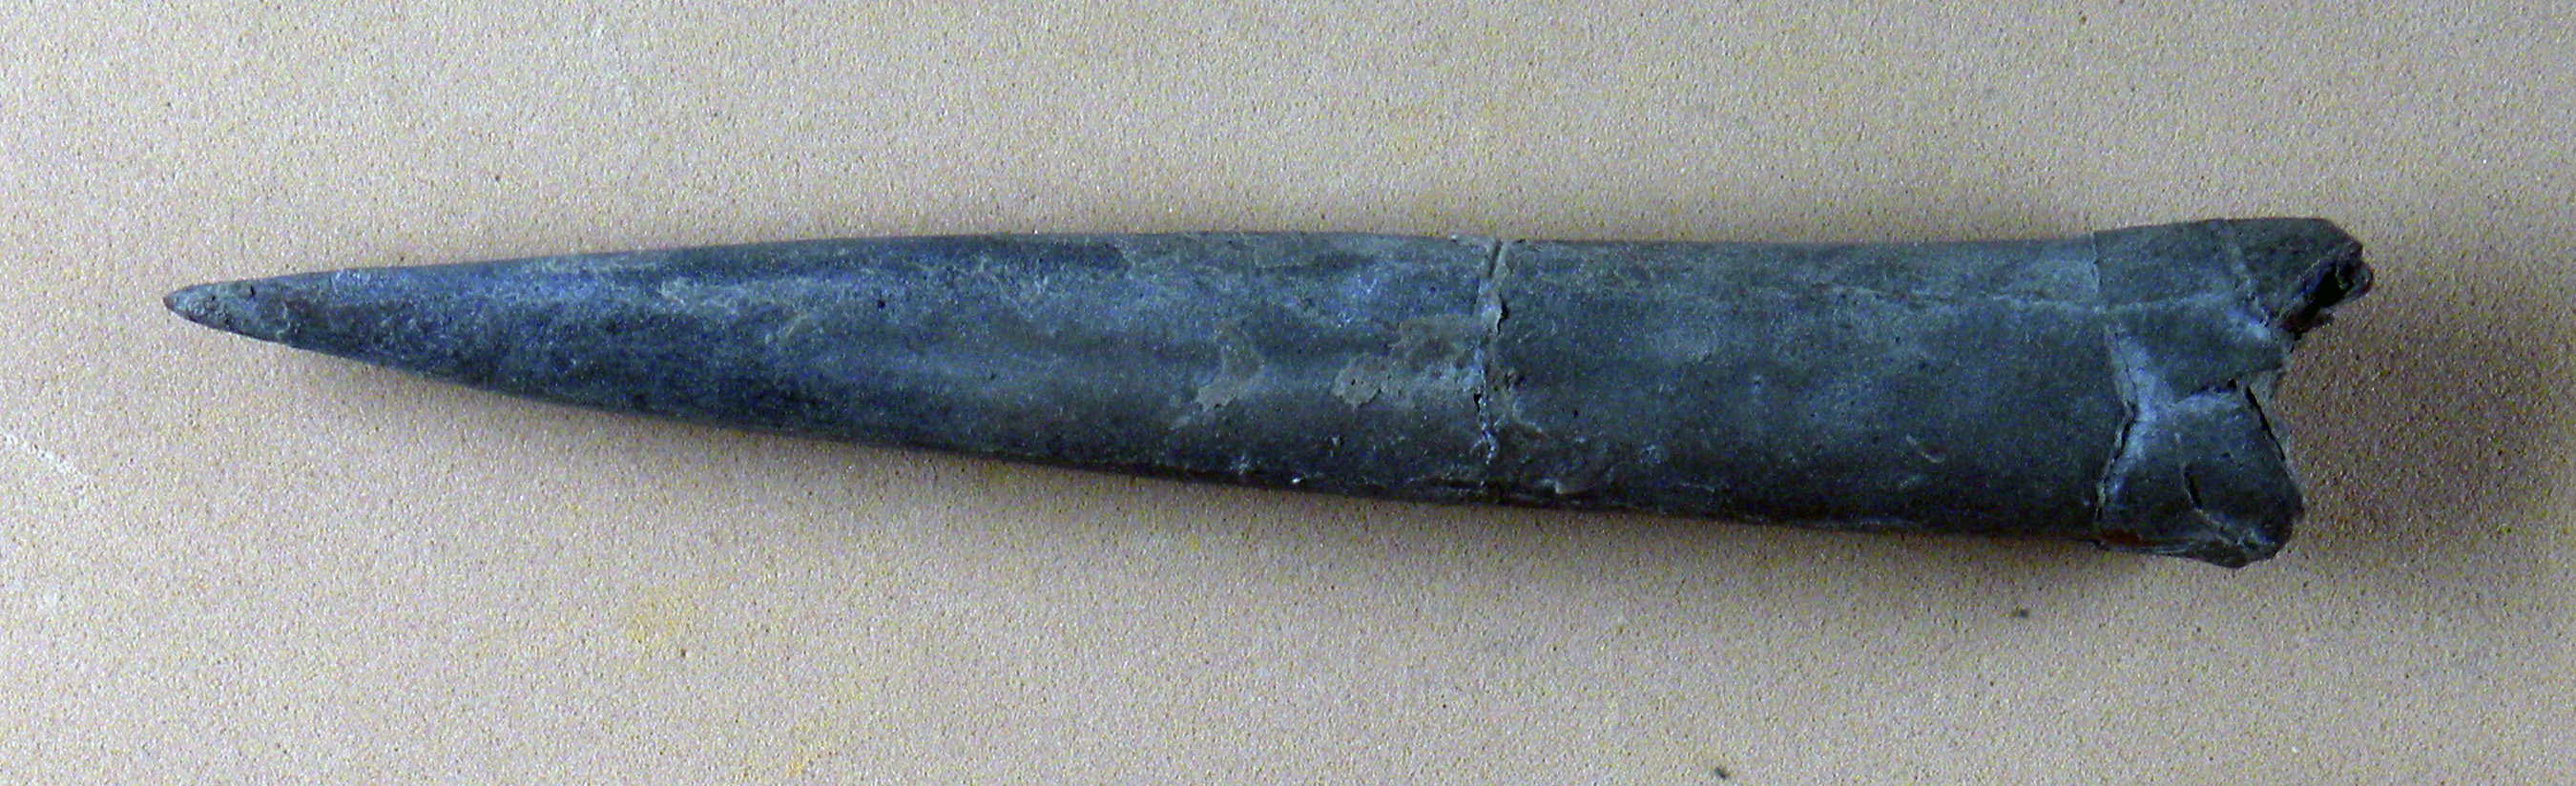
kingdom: Animalia
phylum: Mollusca
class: Cephalopoda
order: Belemnitida
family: Megateuthididae
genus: Acrocoelites
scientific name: Acrocoelites oxyconus
